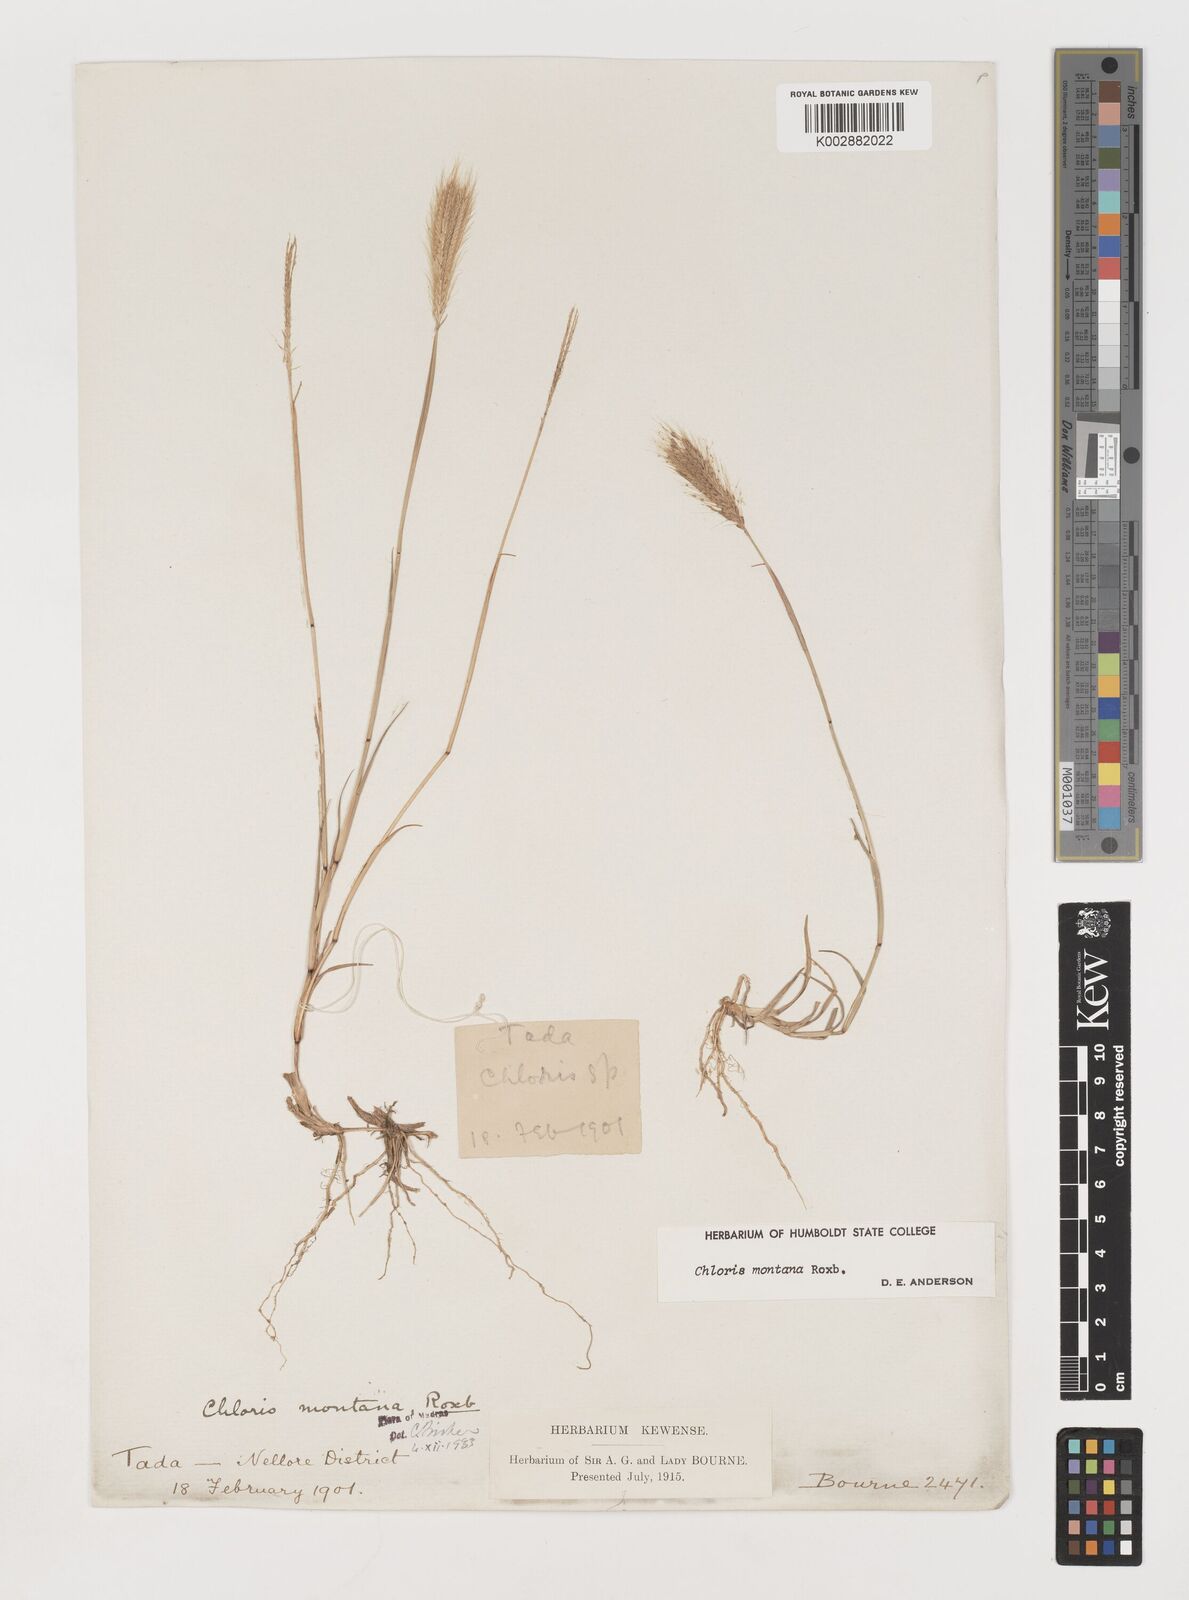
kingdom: Plantae
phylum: Tracheophyta
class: Liliopsida
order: Poales
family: Poaceae
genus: Chloris
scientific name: Chloris montana
